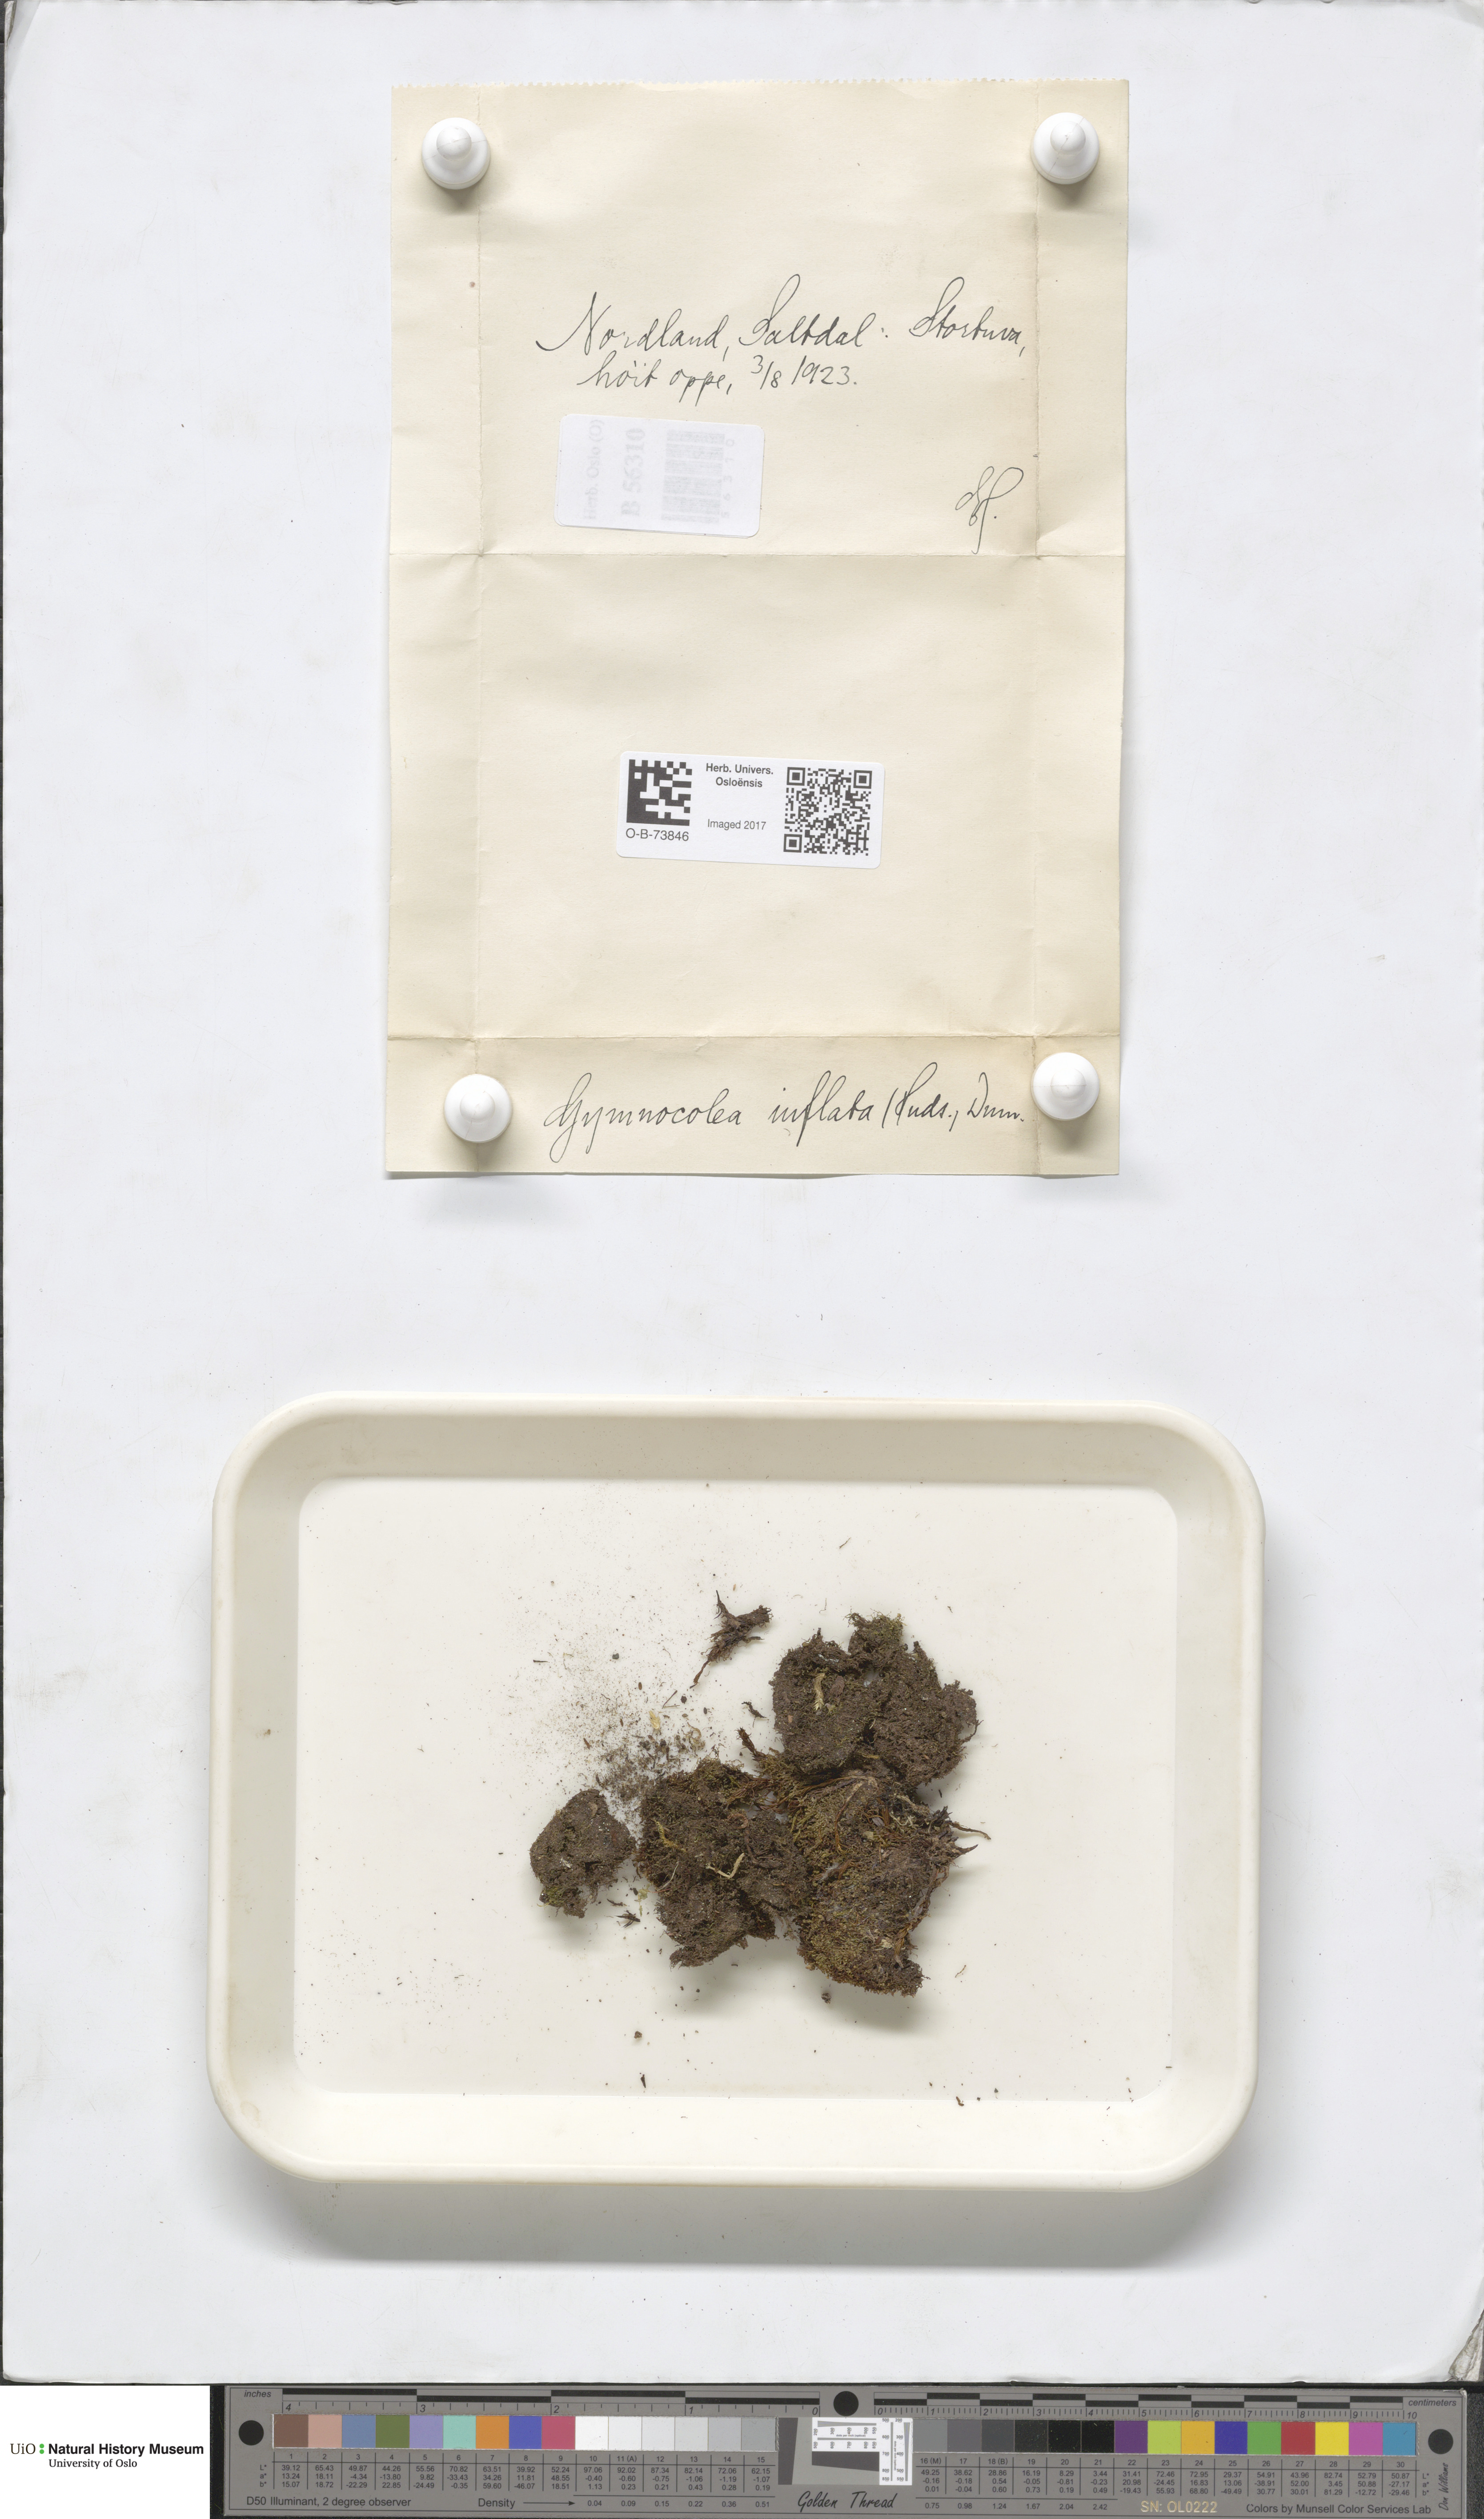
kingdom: Plantae
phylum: Marchantiophyta
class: Jungermanniopsida
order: Jungermanniales
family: Anastrophyllaceae
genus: Gymnocolea
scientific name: Gymnocolea inflata
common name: Inflated notchwort
